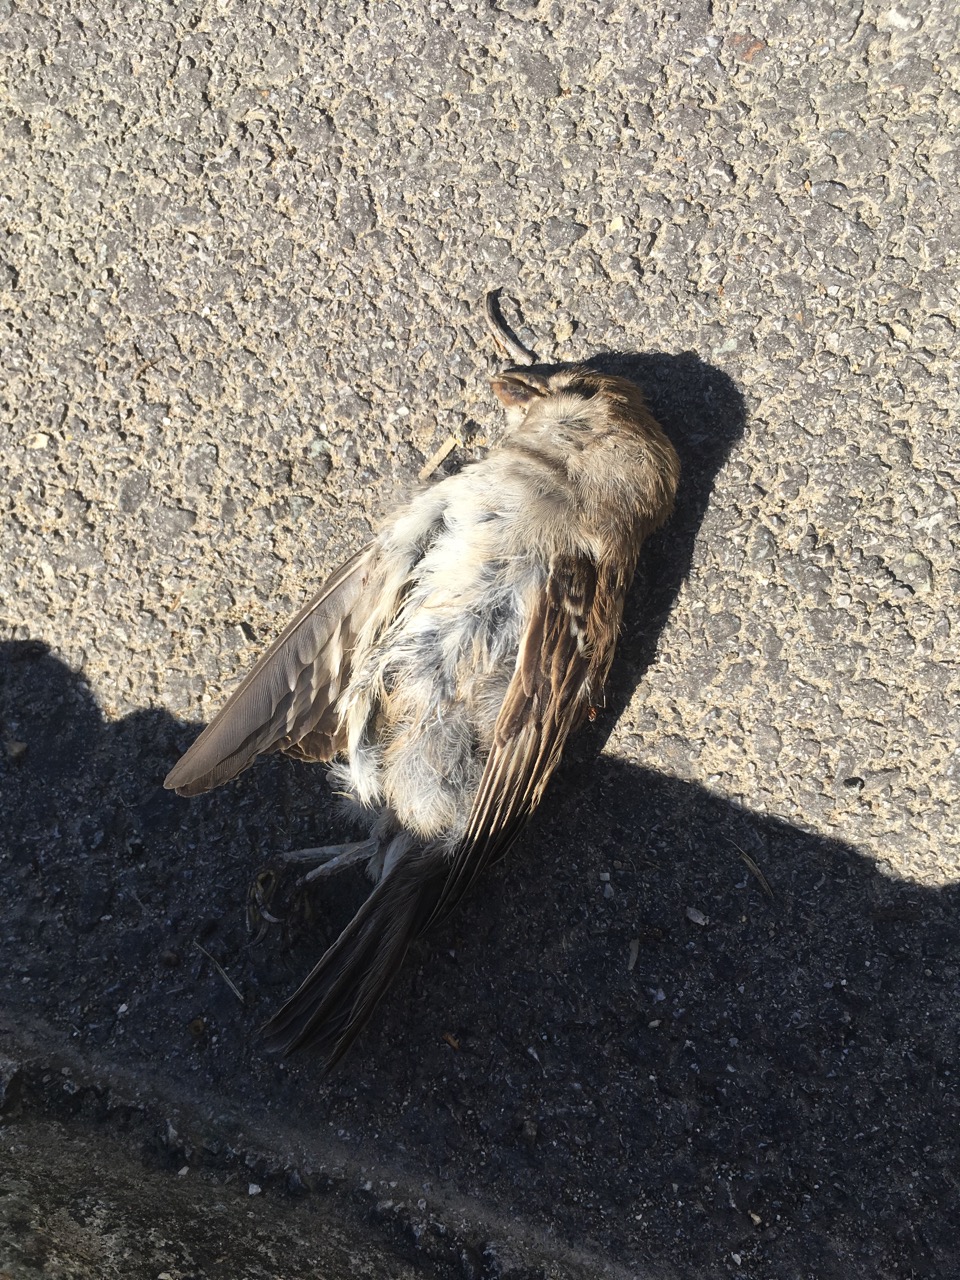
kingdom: Animalia
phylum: Chordata
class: Aves
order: Passeriformes
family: Passeridae
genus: Passer
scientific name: Passer domesticus
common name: House sparrow
